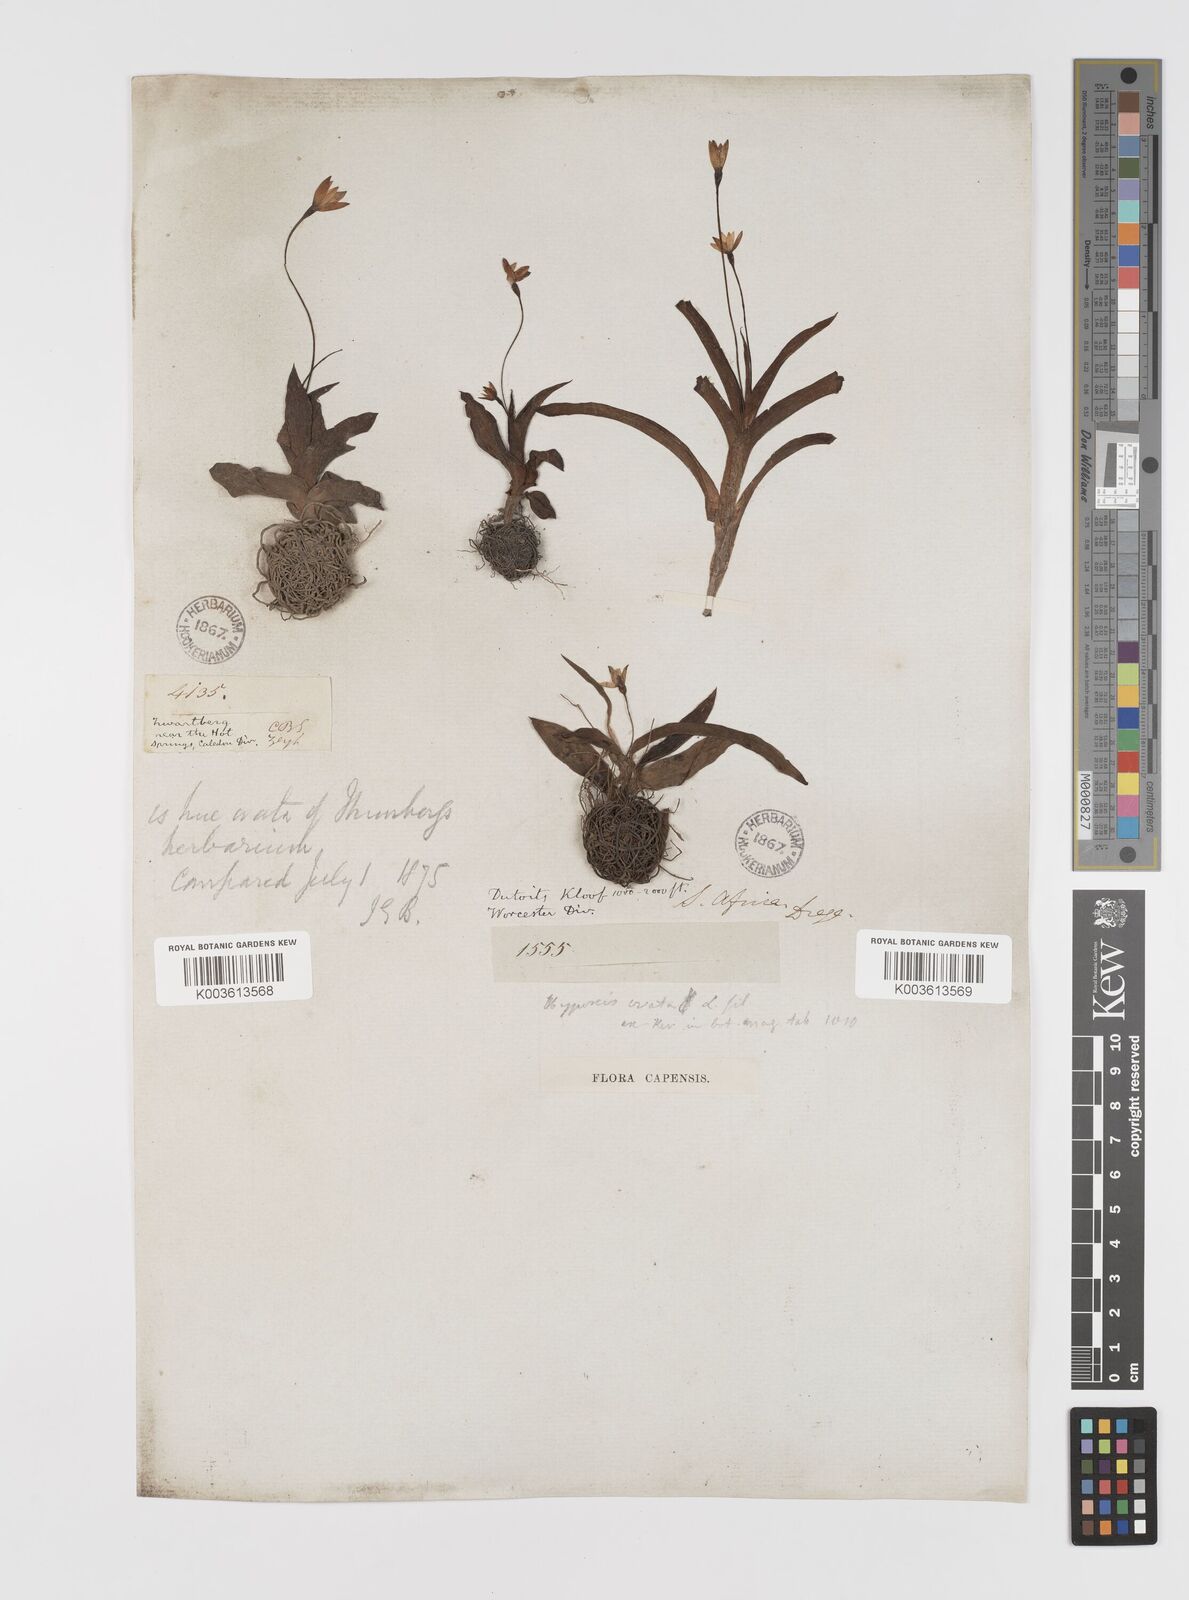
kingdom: Plantae
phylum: Tracheophyta
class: Liliopsida
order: Asparagales
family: Hypoxidaceae
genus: Pauridia
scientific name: Pauridia ovata
